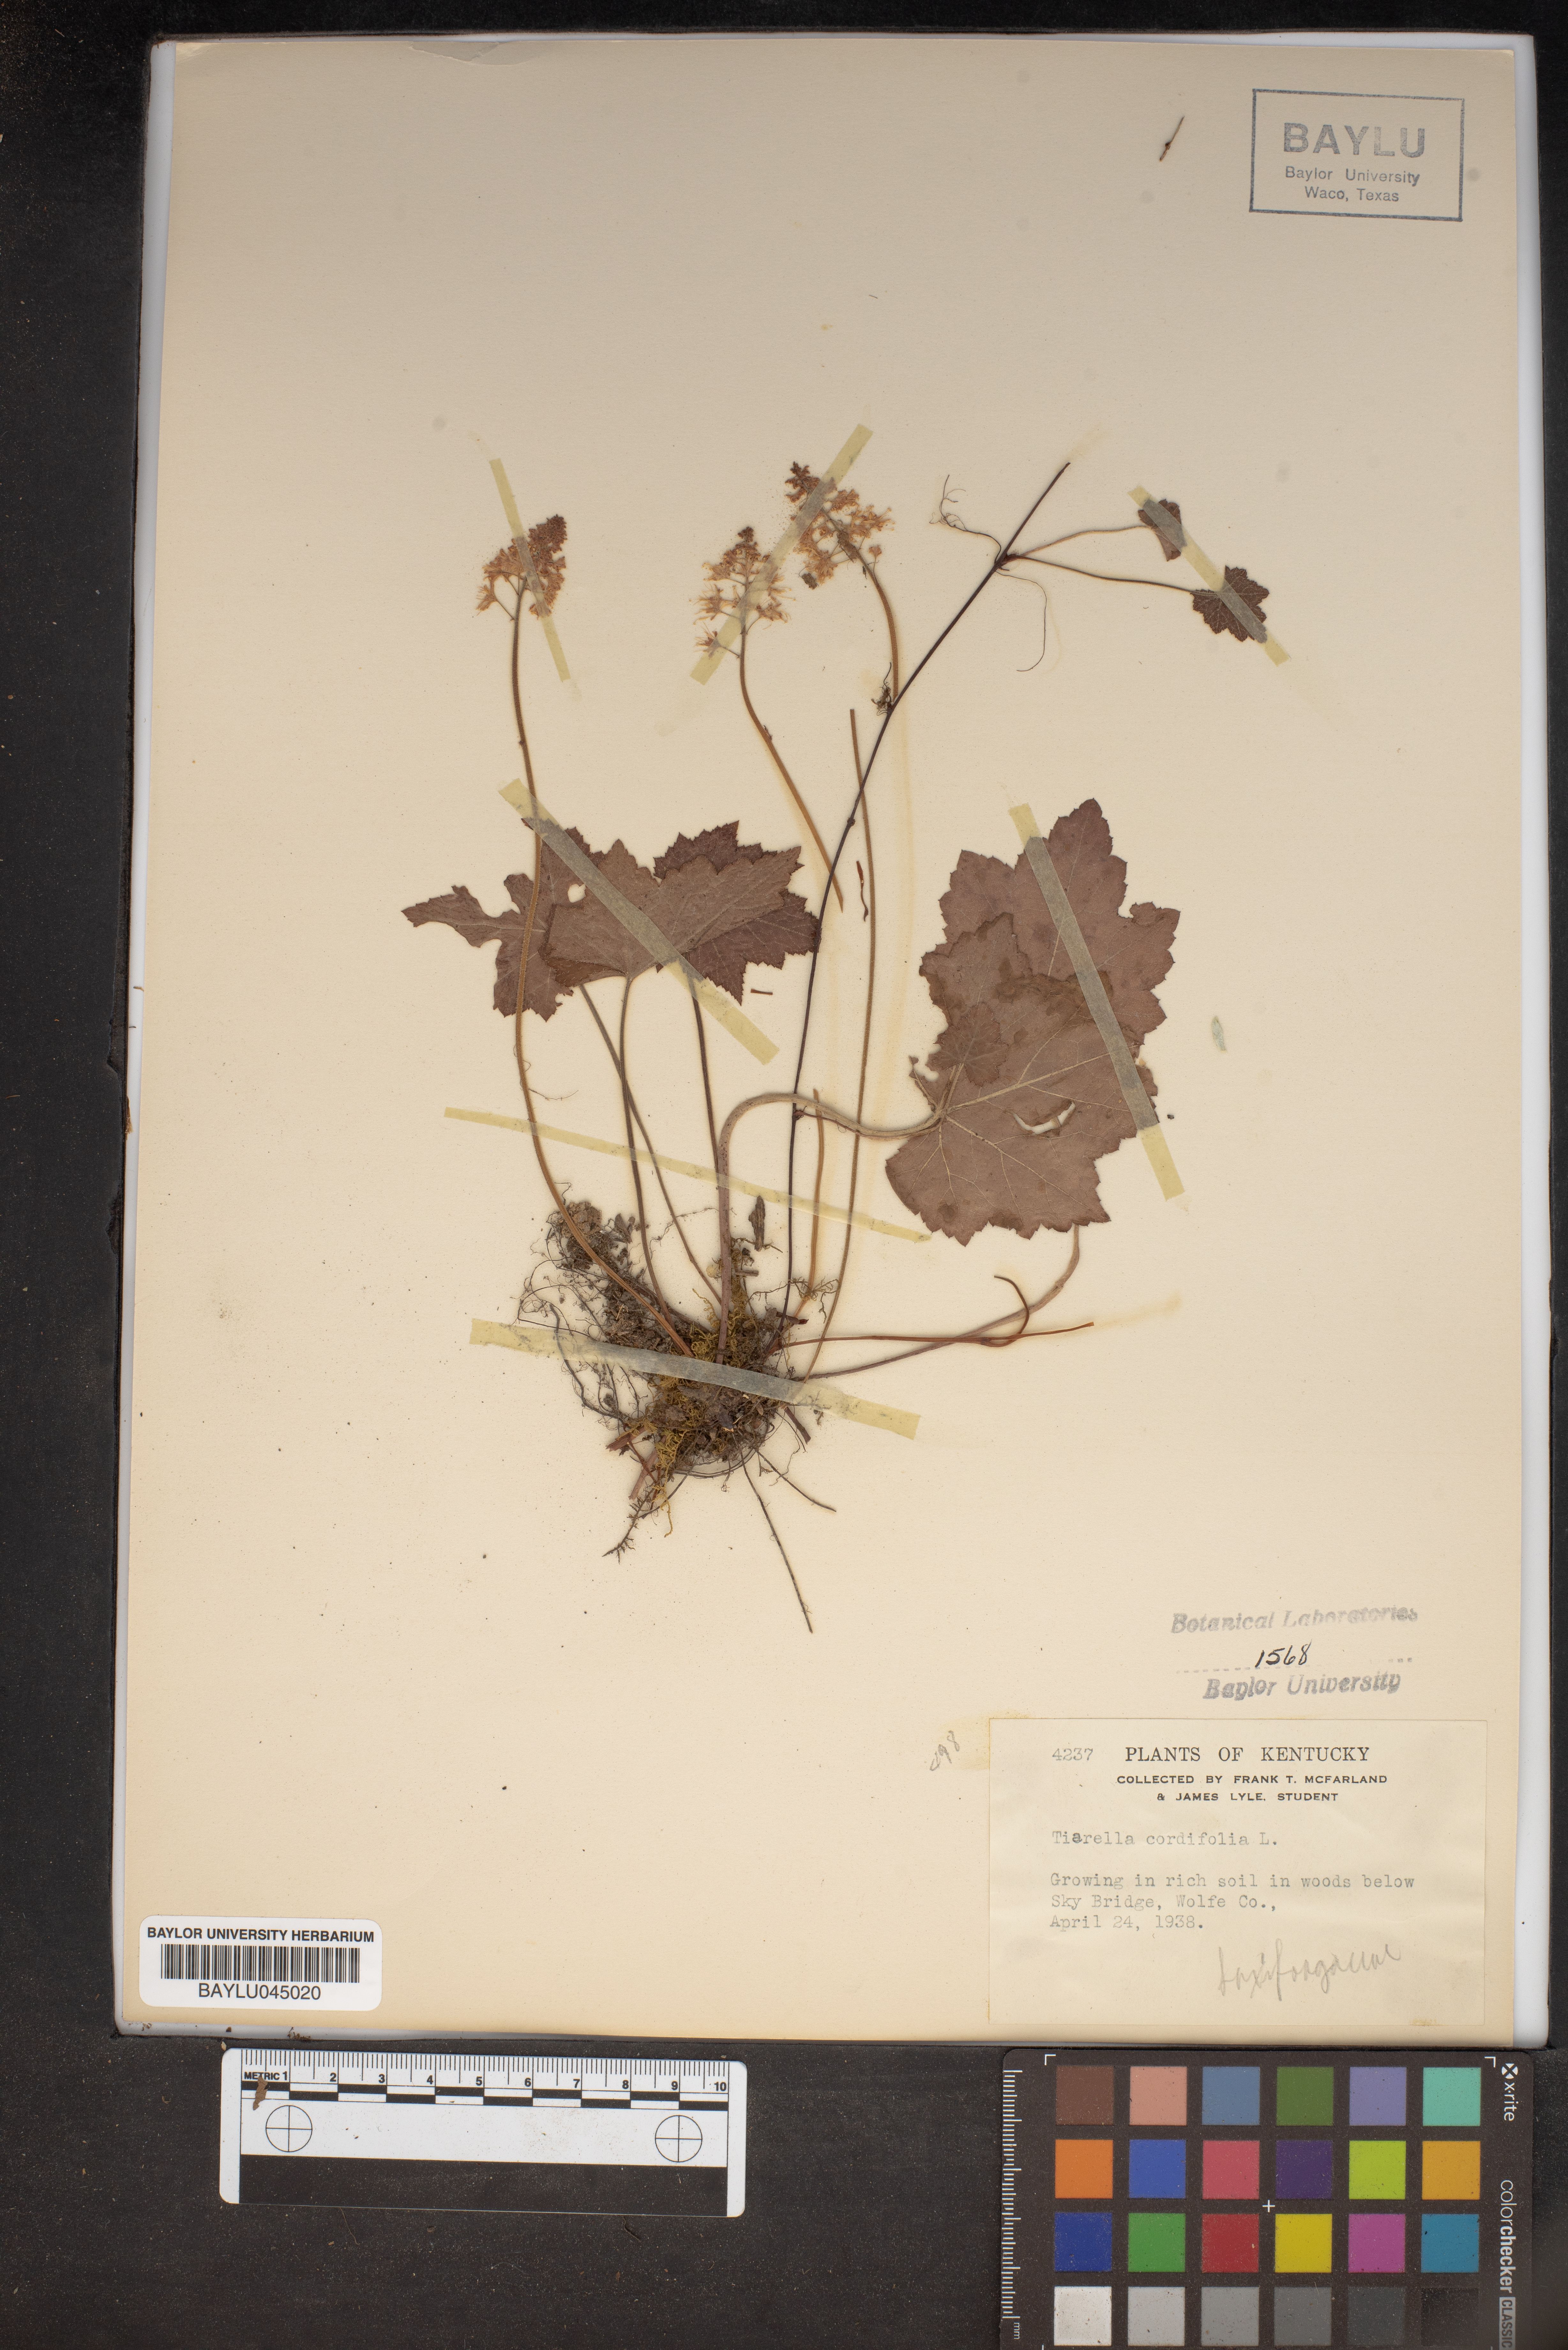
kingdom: Plantae
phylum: Tracheophyta
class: Magnoliopsida
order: Saxifragales
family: Saxifragaceae
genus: Tiarella
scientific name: Tiarella cordifolia
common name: Foamflower
